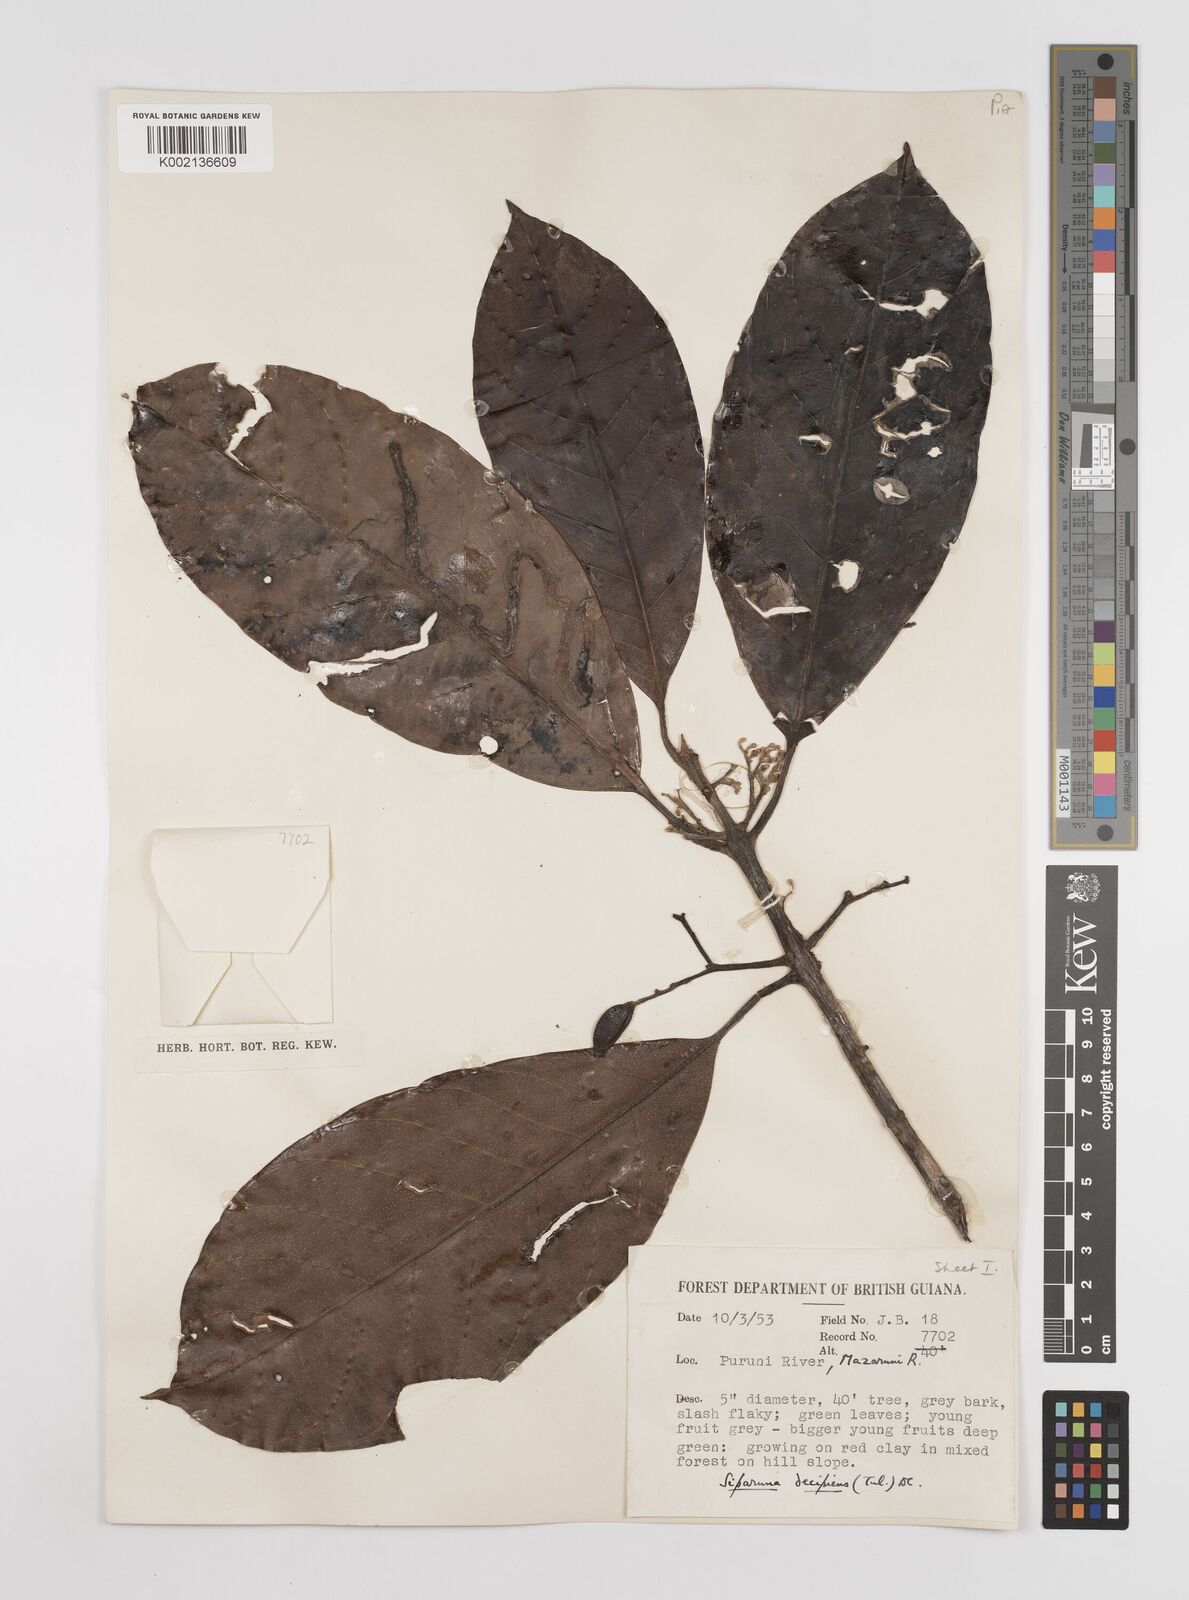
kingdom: Plantae
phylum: Tracheophyta
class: Magnoliopsida
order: Laurales
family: Siparunaceae
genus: Siparuna
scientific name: Siparuna decipiens
